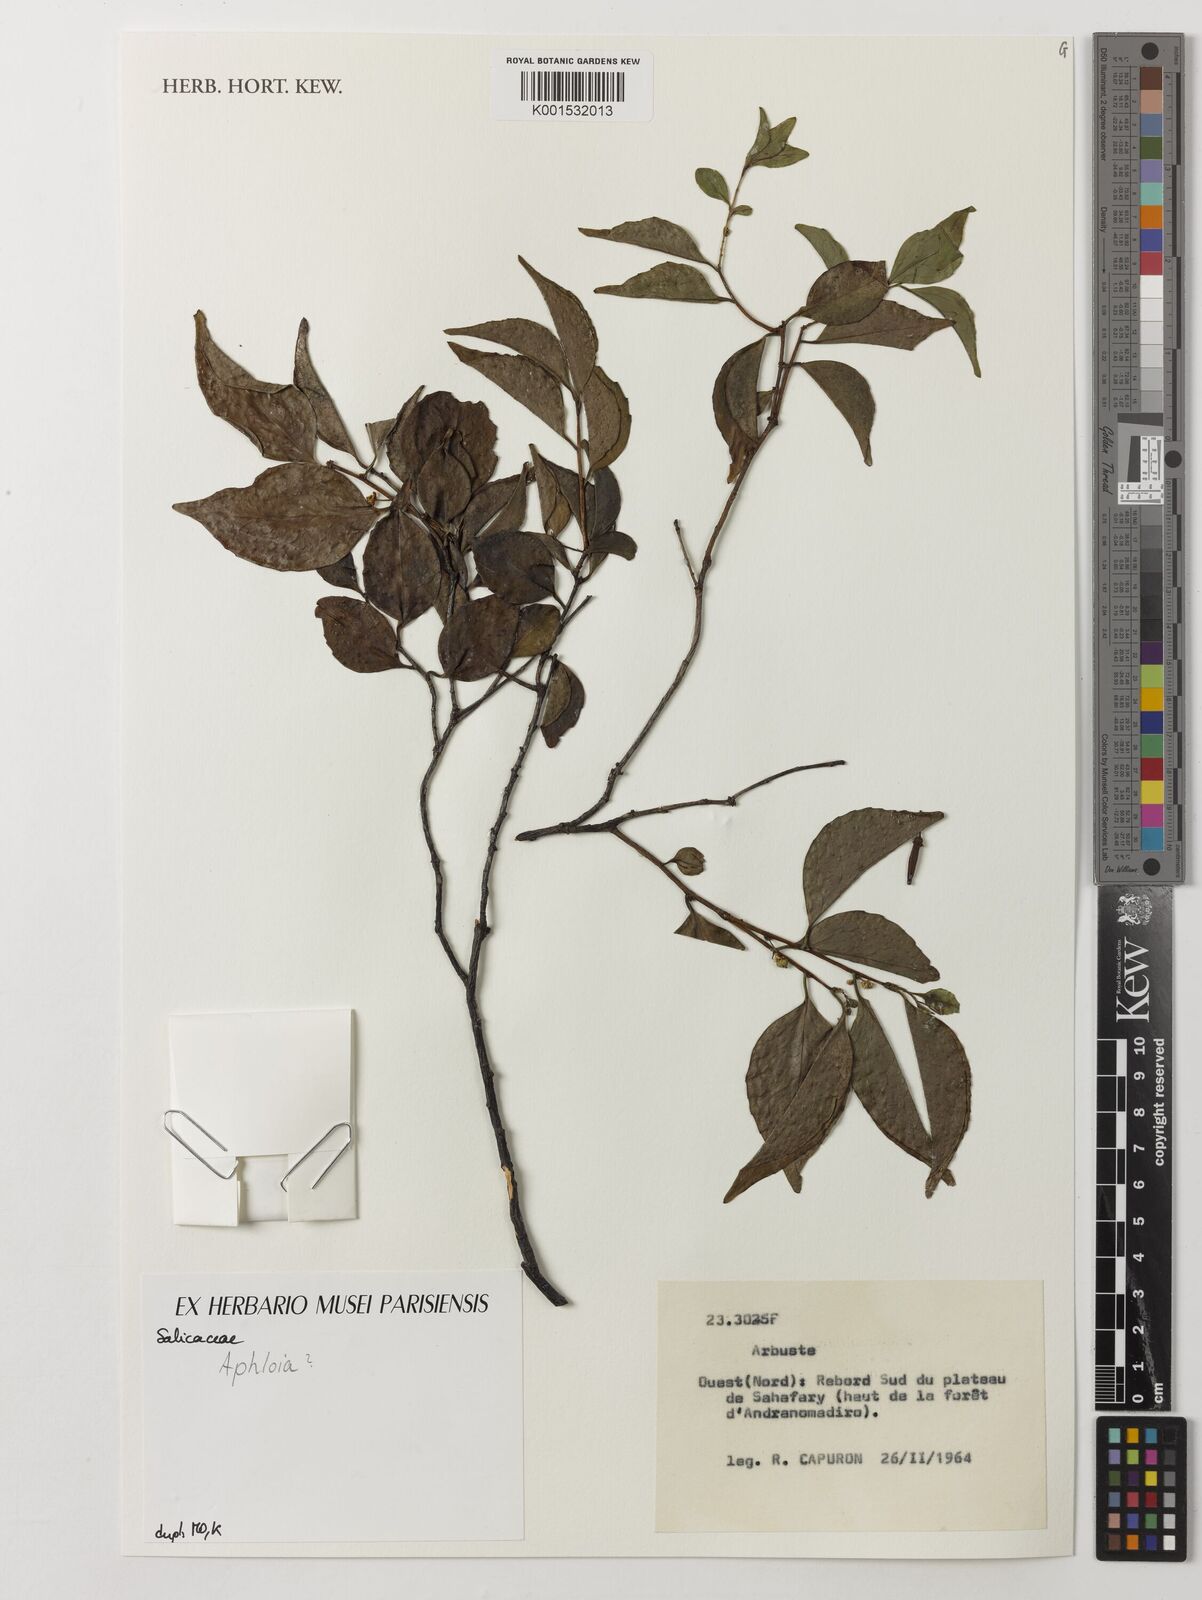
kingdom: Plantae
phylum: Tracheophyta
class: Magnoliopsida
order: Crossosomatales
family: Aphloiaceae
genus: Aphloia
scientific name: Aphloia
